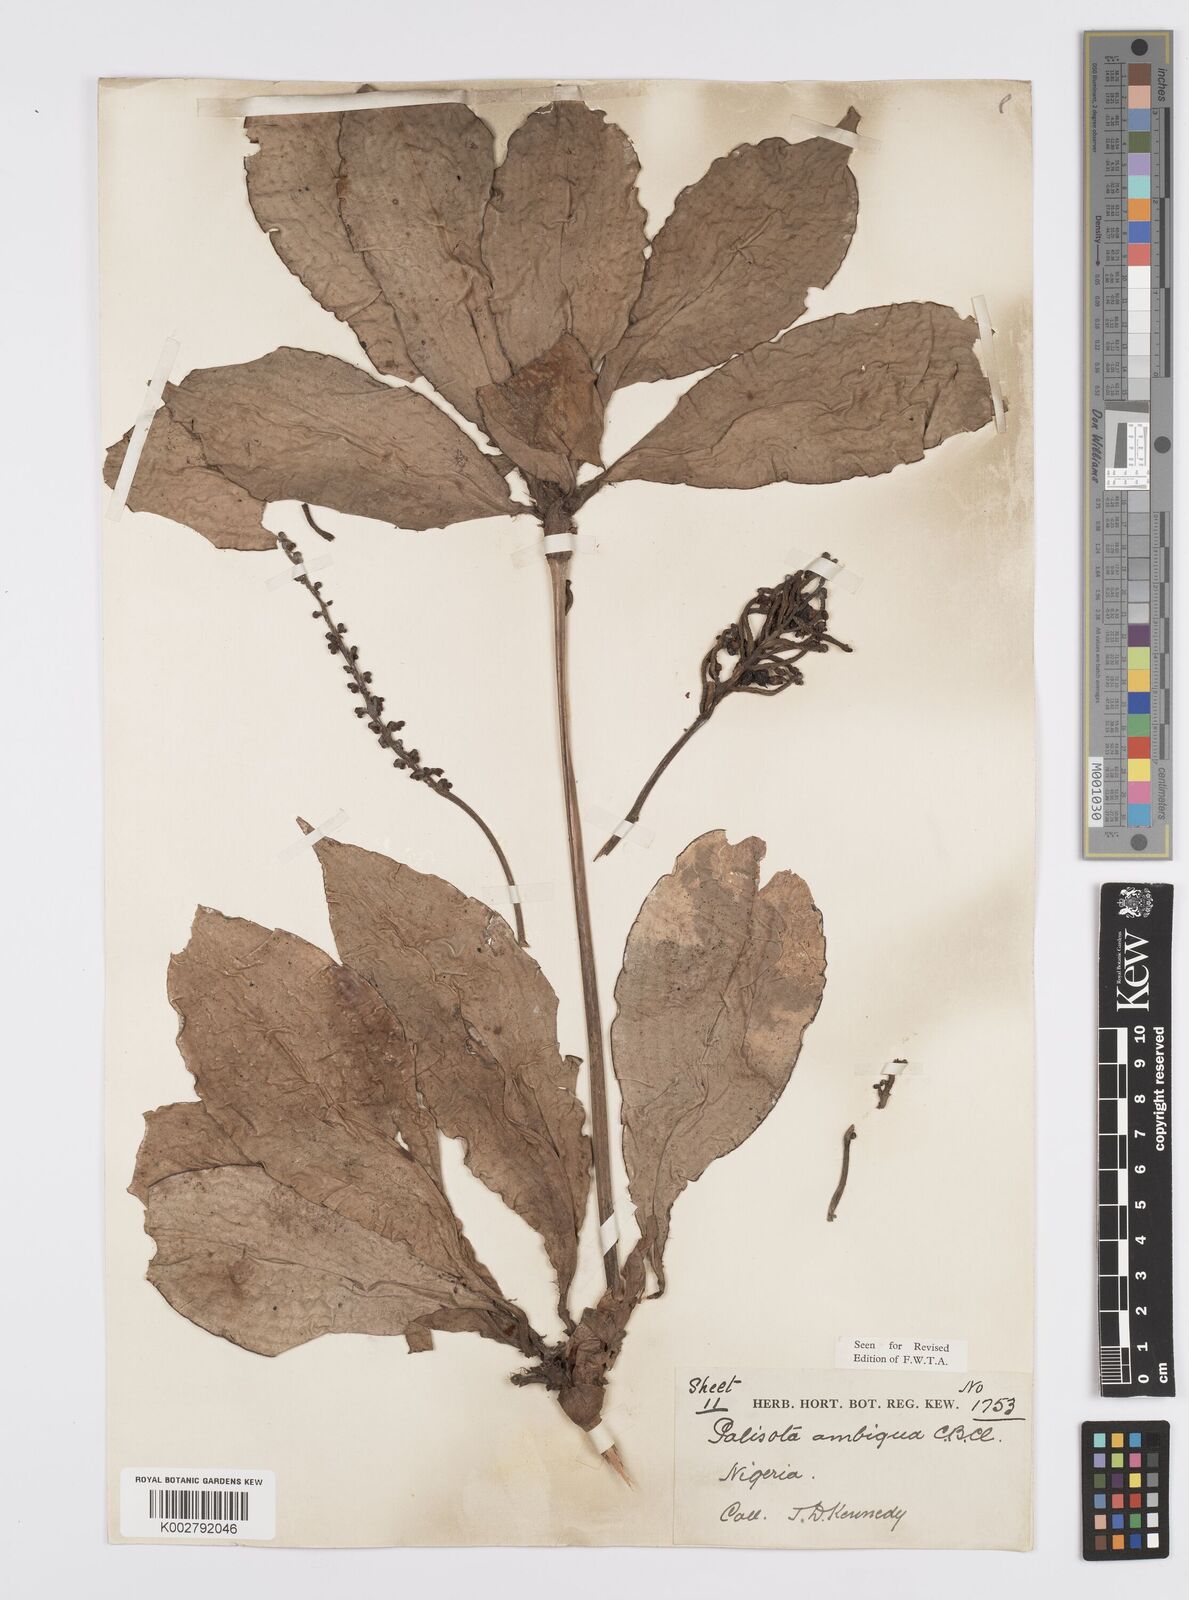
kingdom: Plantae
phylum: Tracheophyta
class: Liliopsida
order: Commelinales
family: Commelinaceae
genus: Palisota
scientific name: Palisota ambigua
